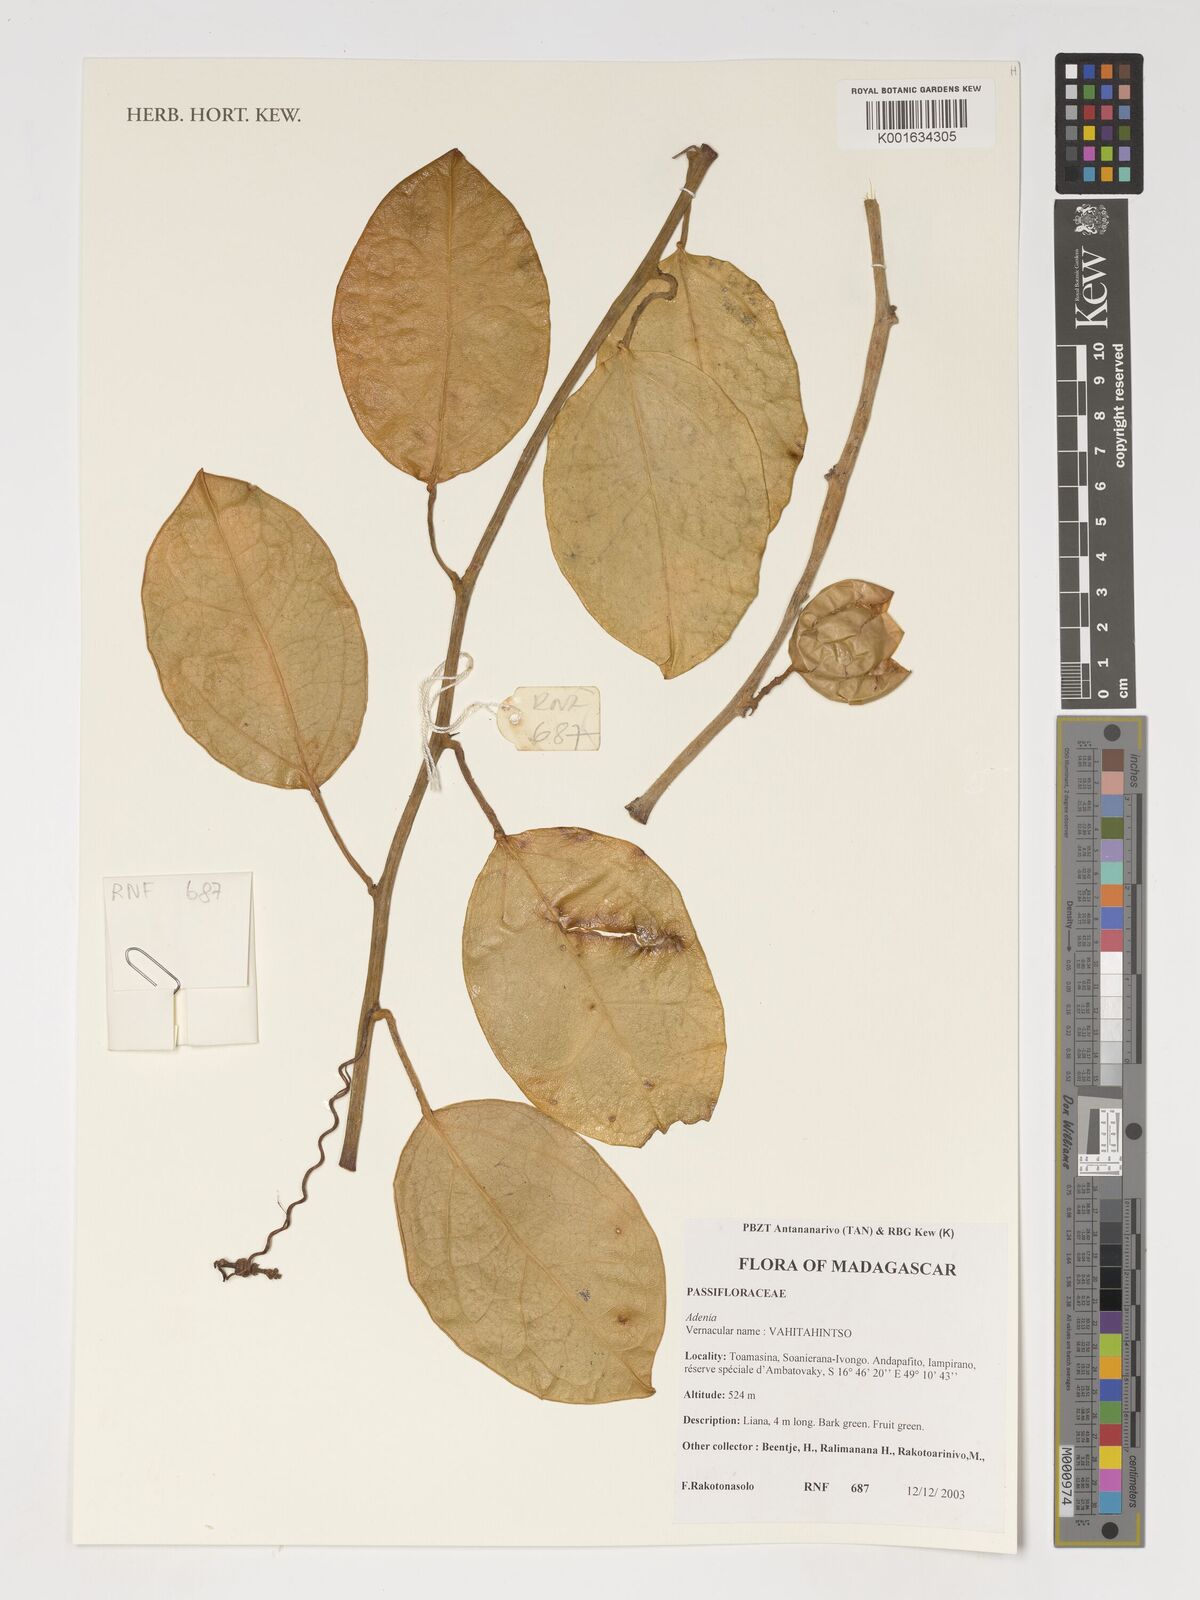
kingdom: Plantae
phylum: Tracheophyta
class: Magnoliopsida
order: Malpighiales
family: Passifloraceae
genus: Adenia
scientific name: Adenia
